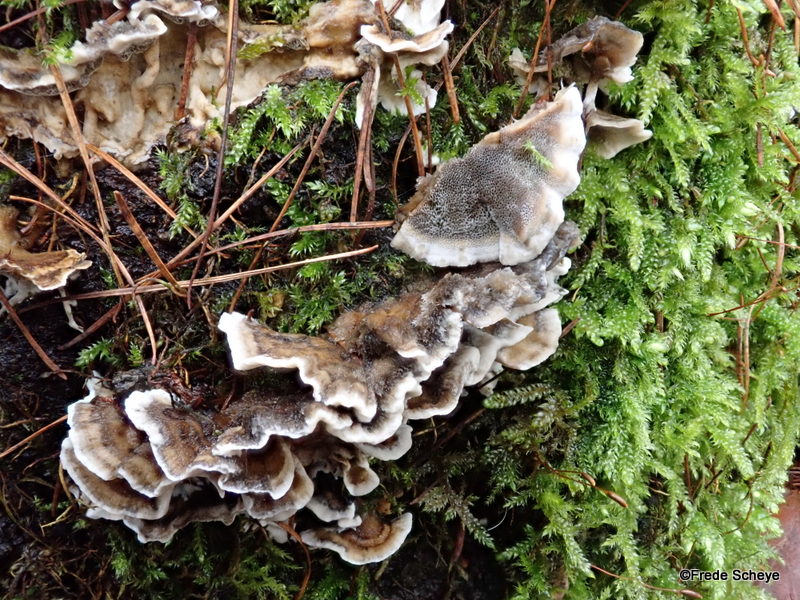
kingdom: Fungi
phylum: Basidiomycota
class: Agaricomycetes
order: Polyporales
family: Phanerochaetaceae
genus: Bjerkandera
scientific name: Bjerkandera adusta
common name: sveden sodporesvamp
